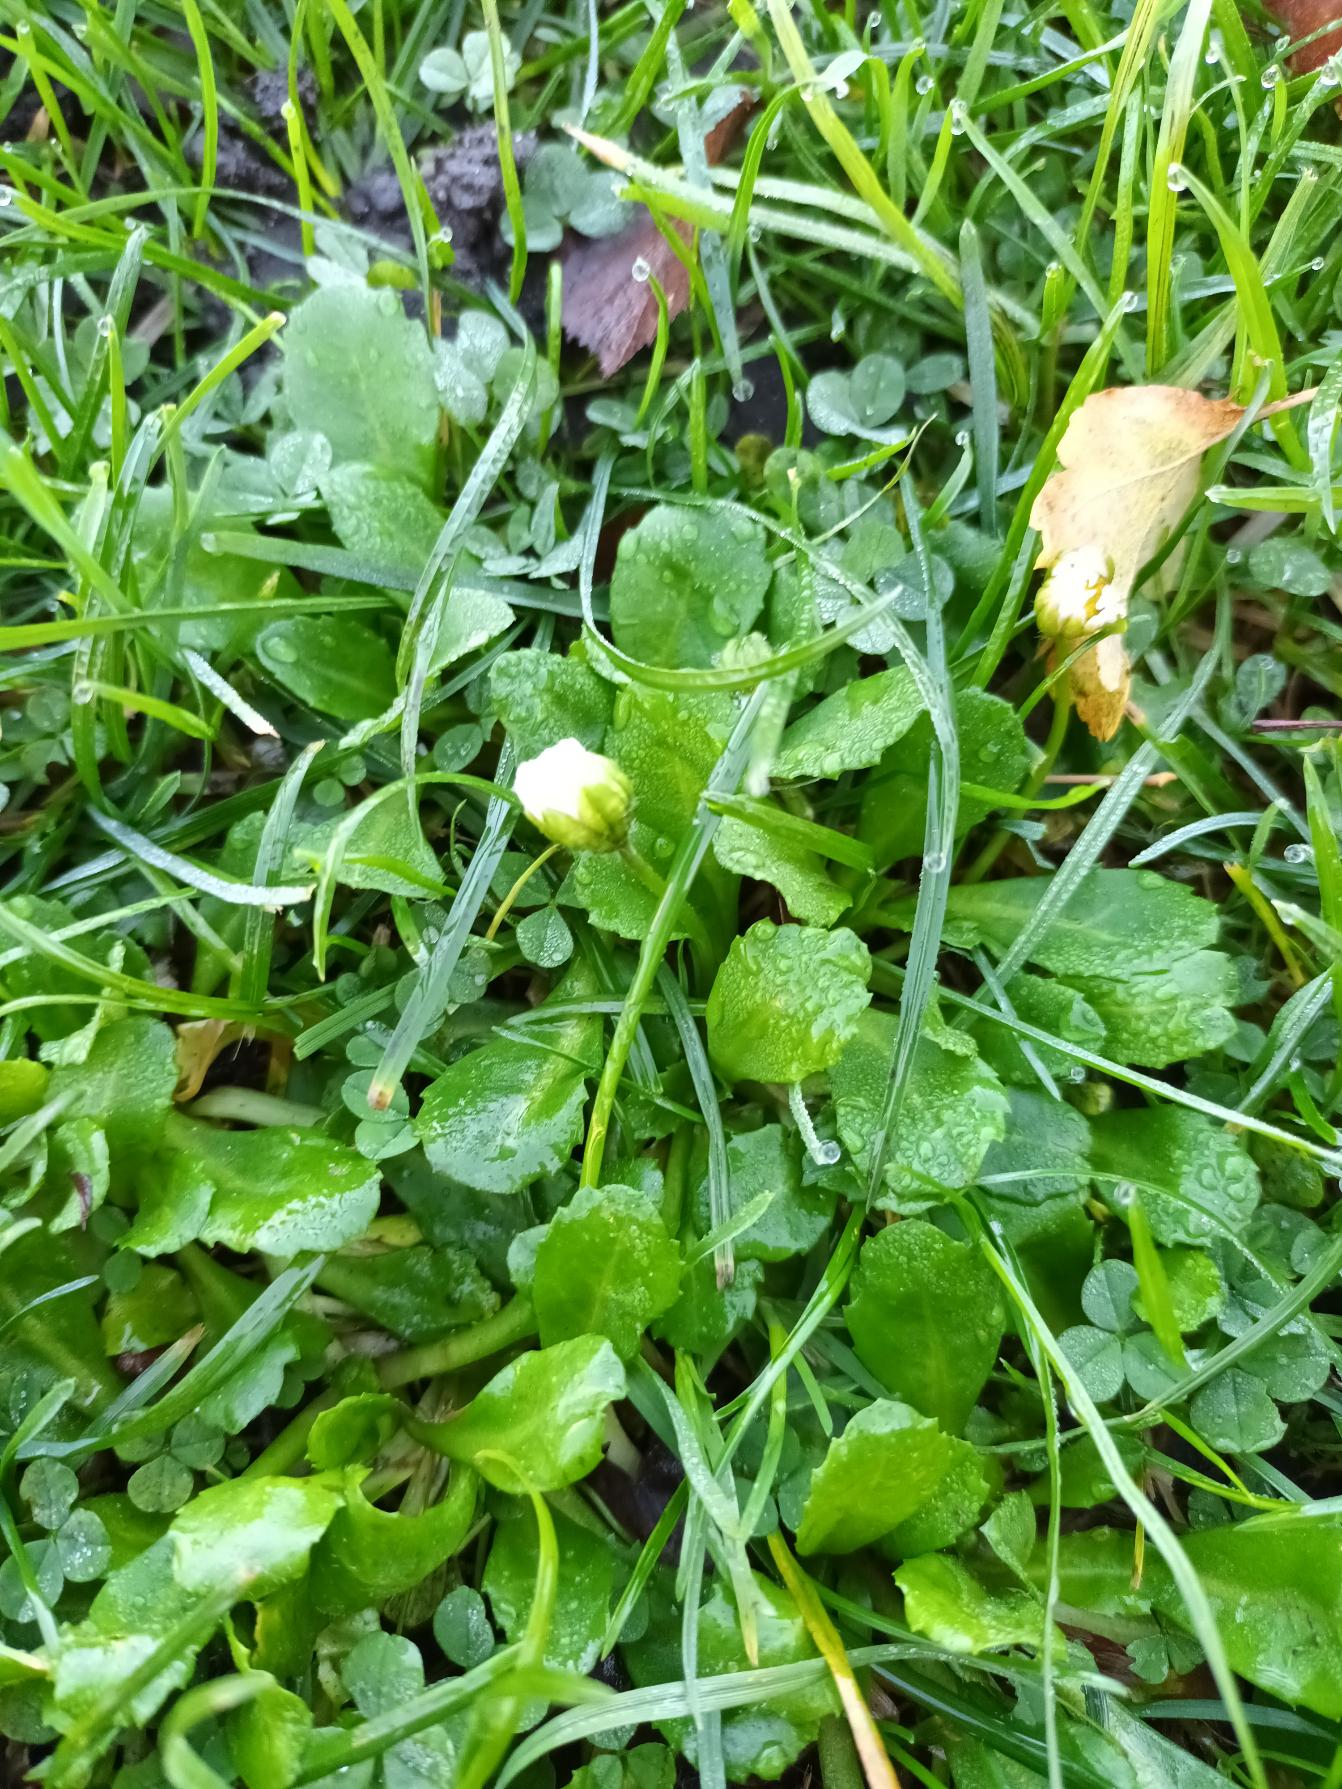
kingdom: Plantae
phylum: Tracheophyta
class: Magnoliopsida
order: Asterales
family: Asteraceae
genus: Bellis
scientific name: Bellis perennis
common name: Tusindfryd
